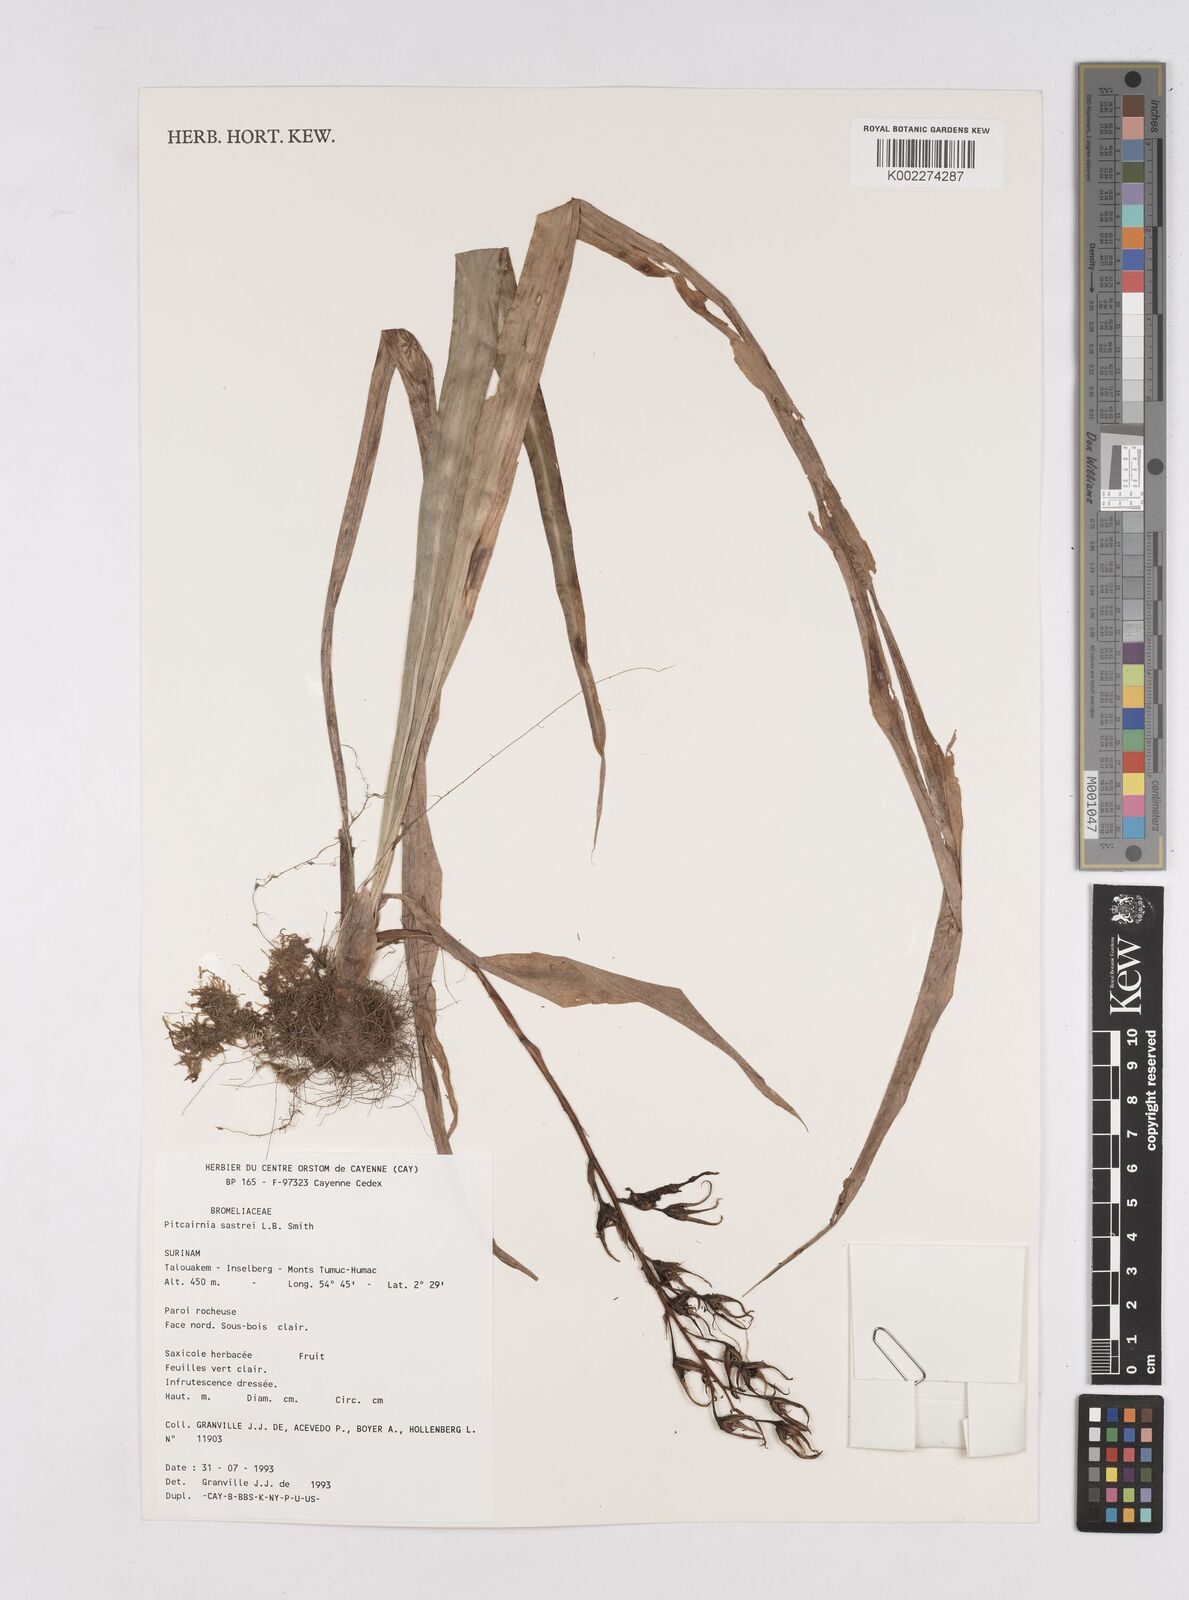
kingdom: Plantae
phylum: Tracheophyta
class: Liliopsida
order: Poales
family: Bromeliaceae
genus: Pitcairnia
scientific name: Pitcairnia sastrei
